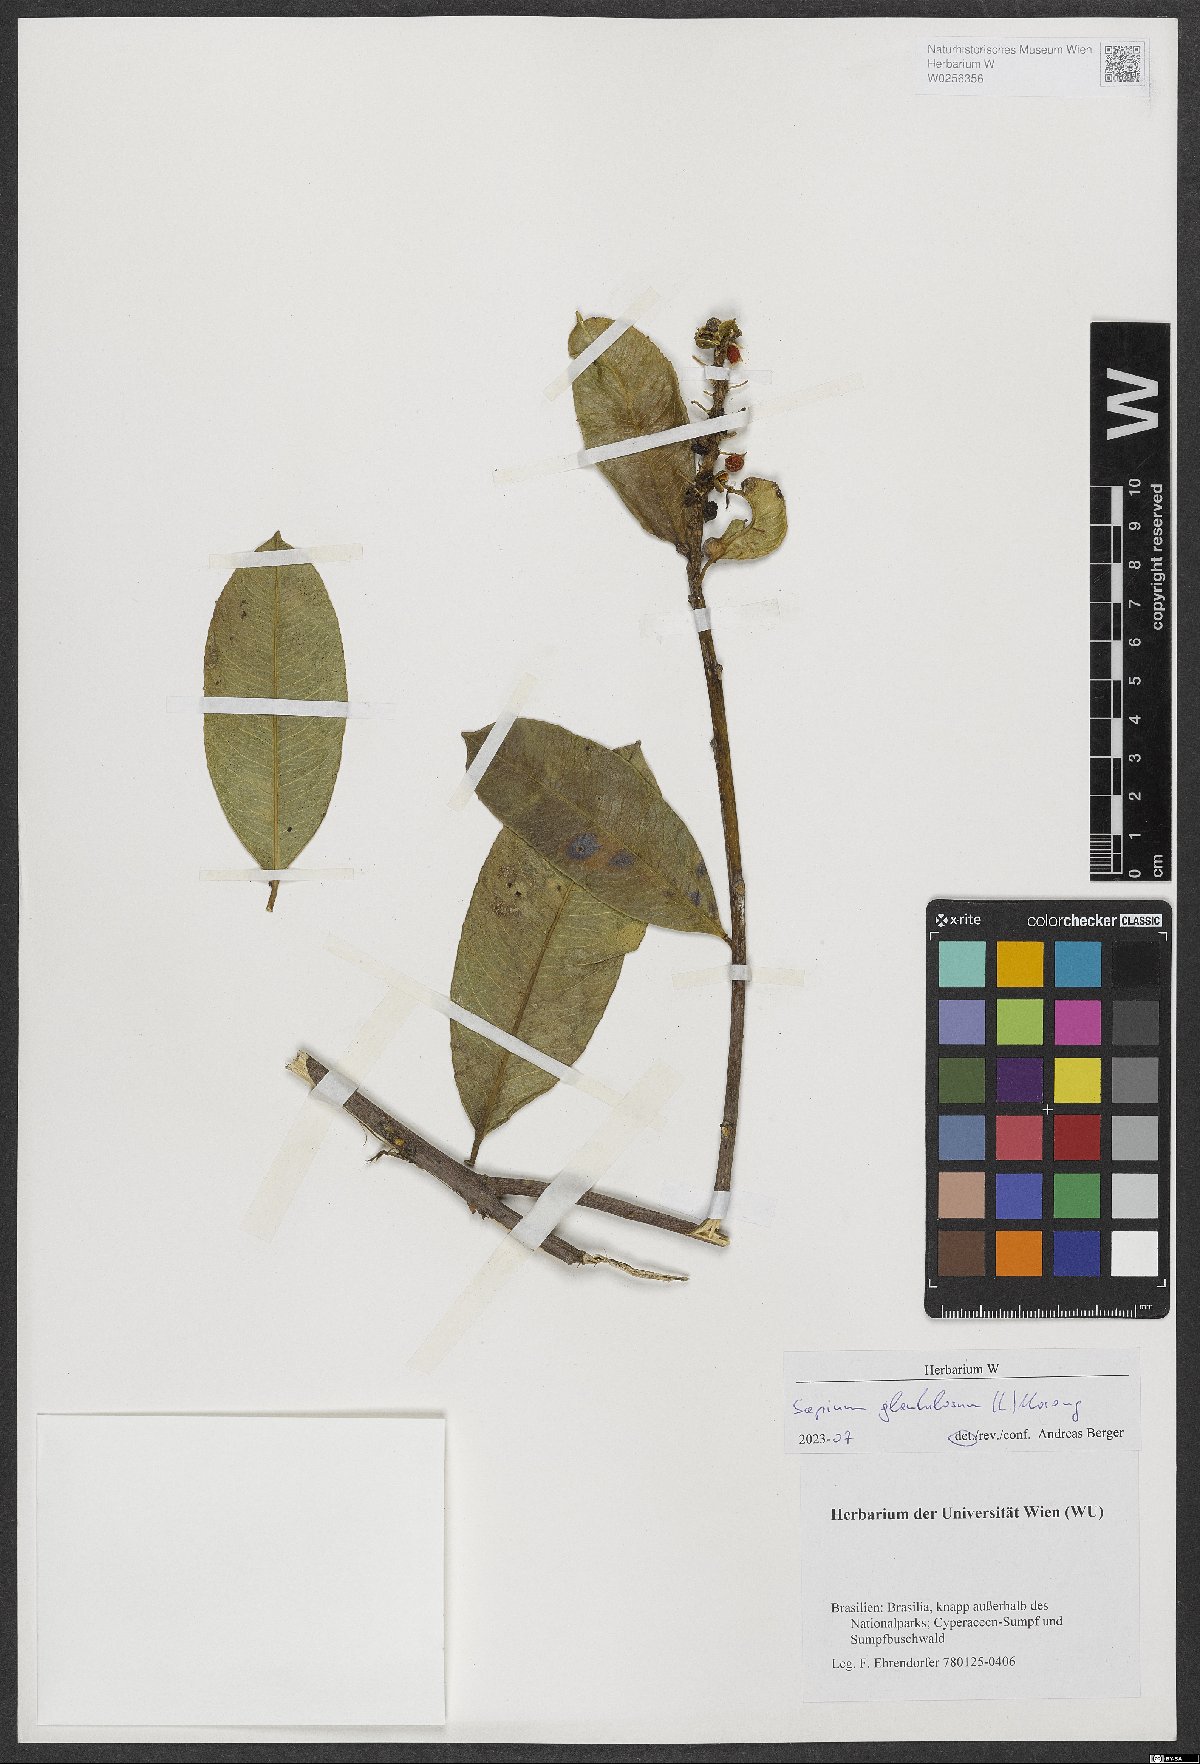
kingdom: Plantae
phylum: Tracheophyta
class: Magnoliopsida
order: Malpighiales
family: Euphorbiaceae
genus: Sapium
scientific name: Sapium glandulosum
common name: Milktree
